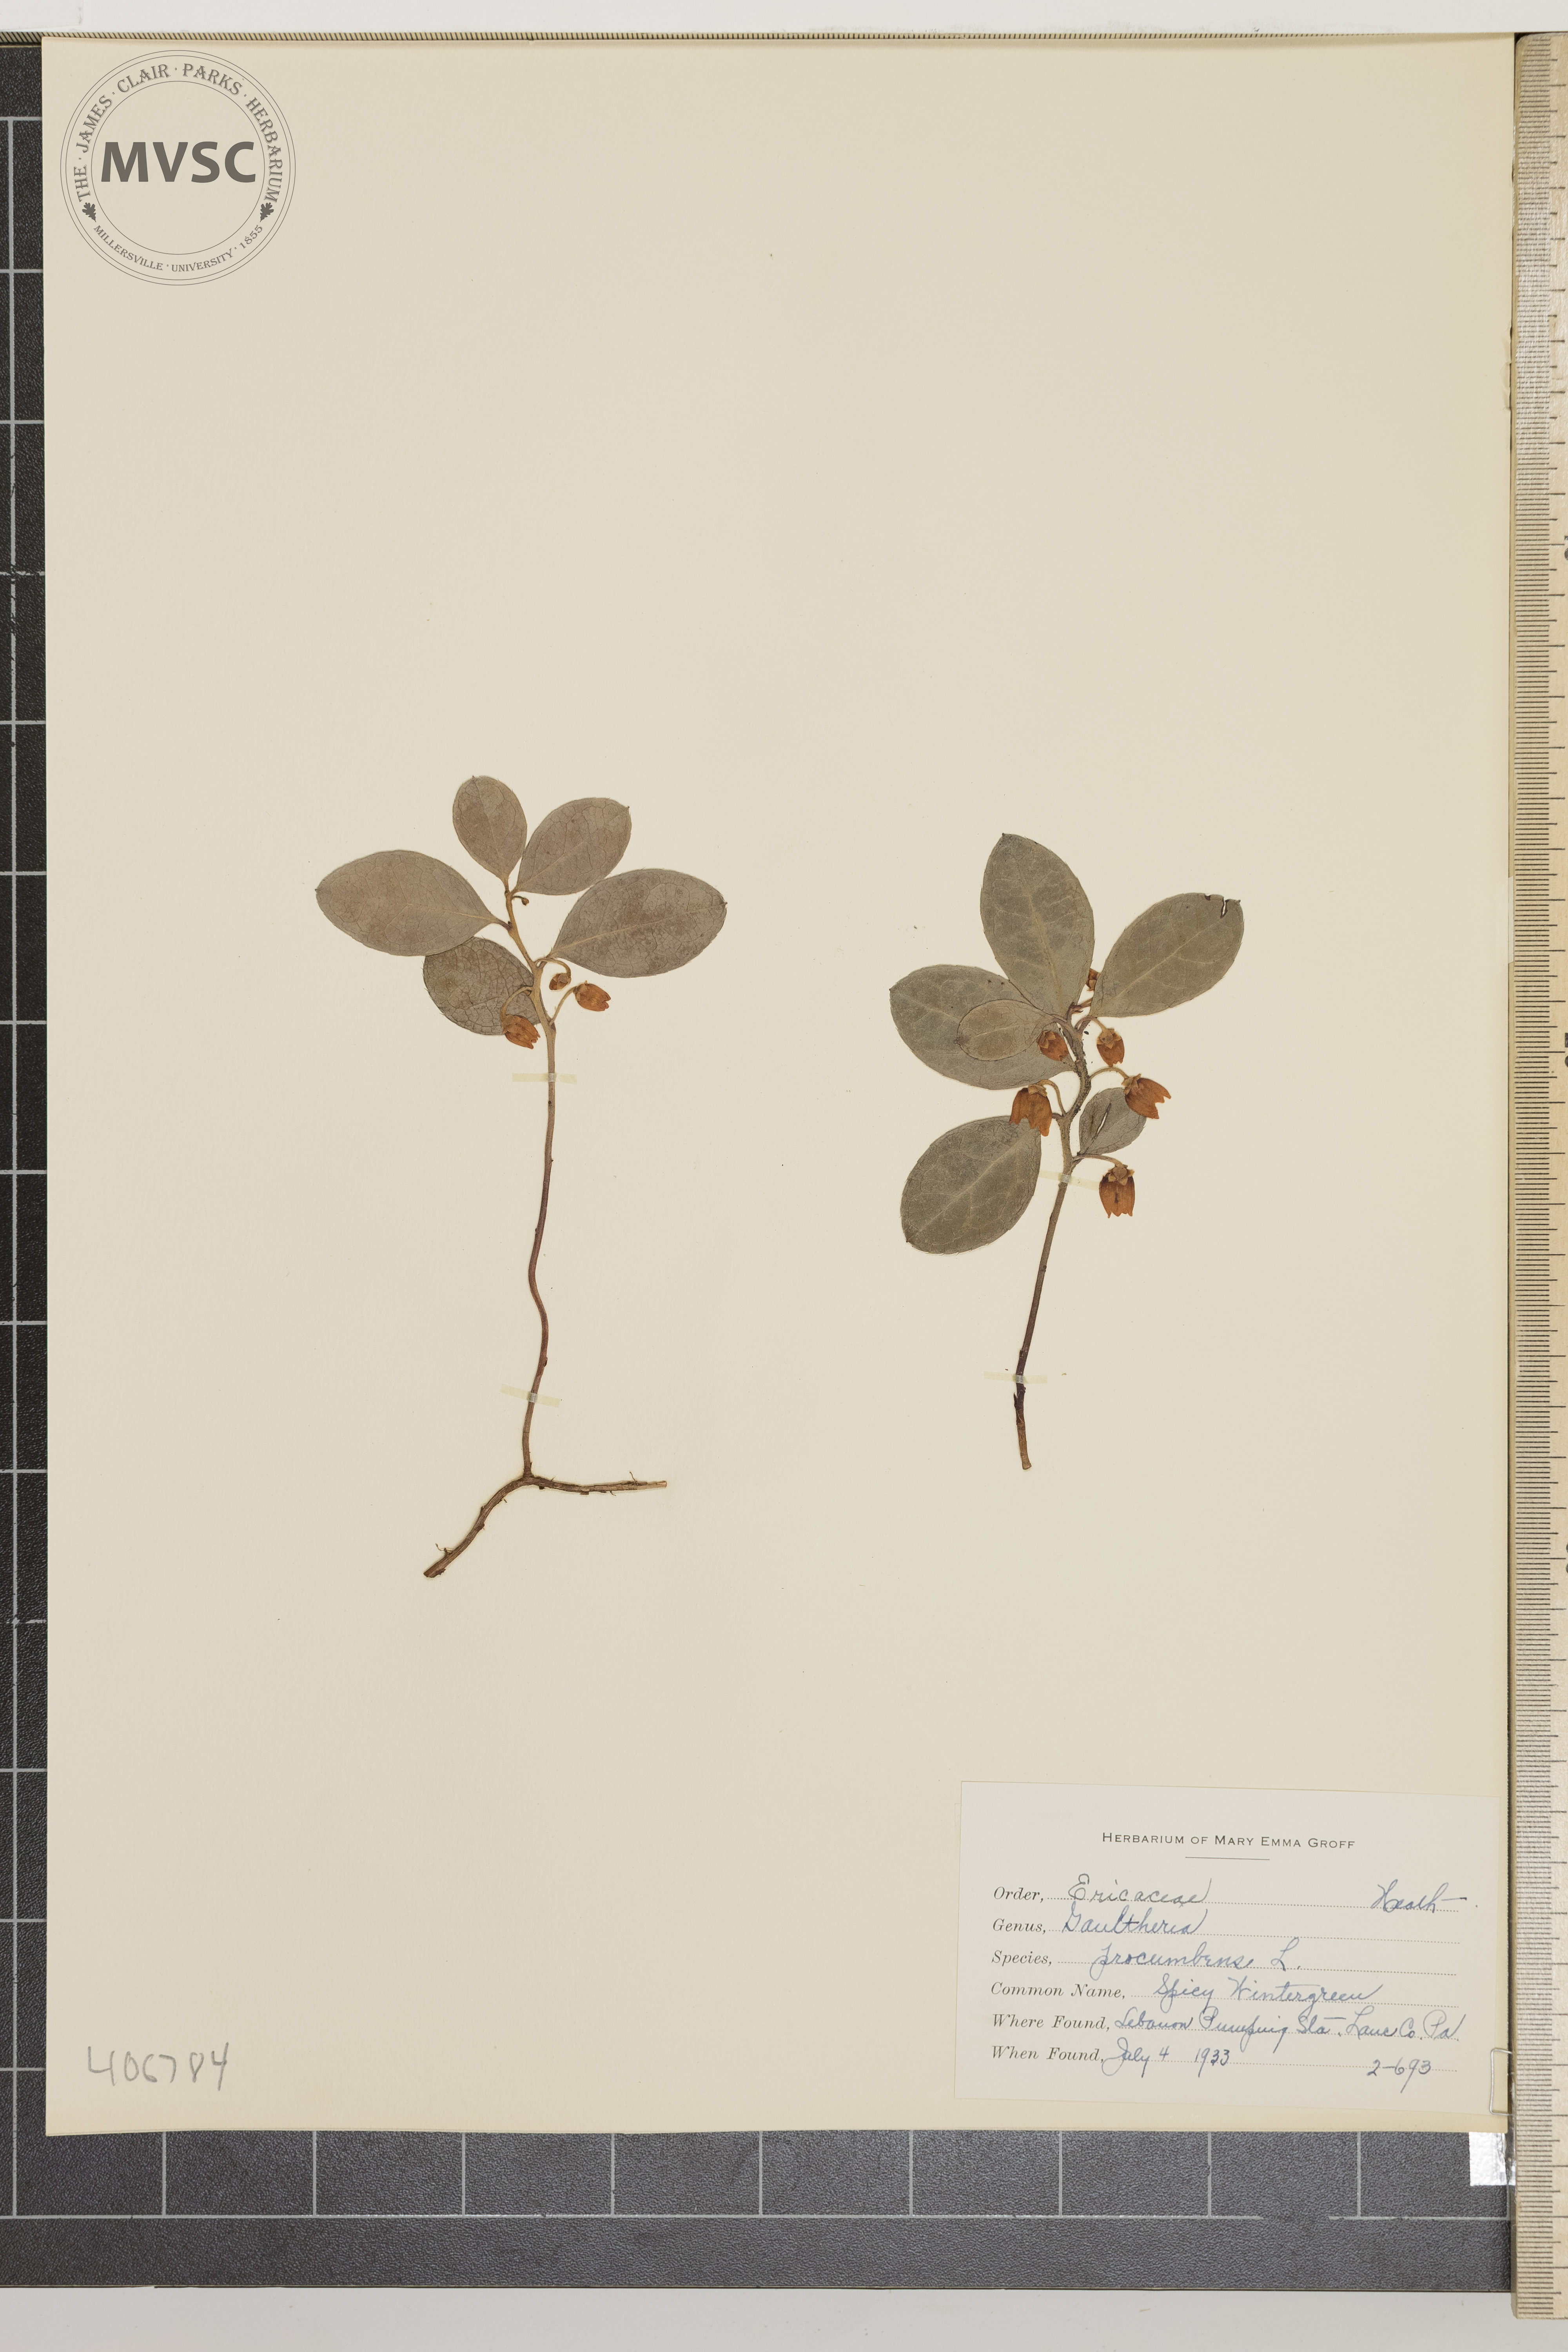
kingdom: Plantae
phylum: Tracheophyta
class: Magnoliopsida
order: Ericales
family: Ericaceae
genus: Gaultheria
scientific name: Gaultheria procumbens
